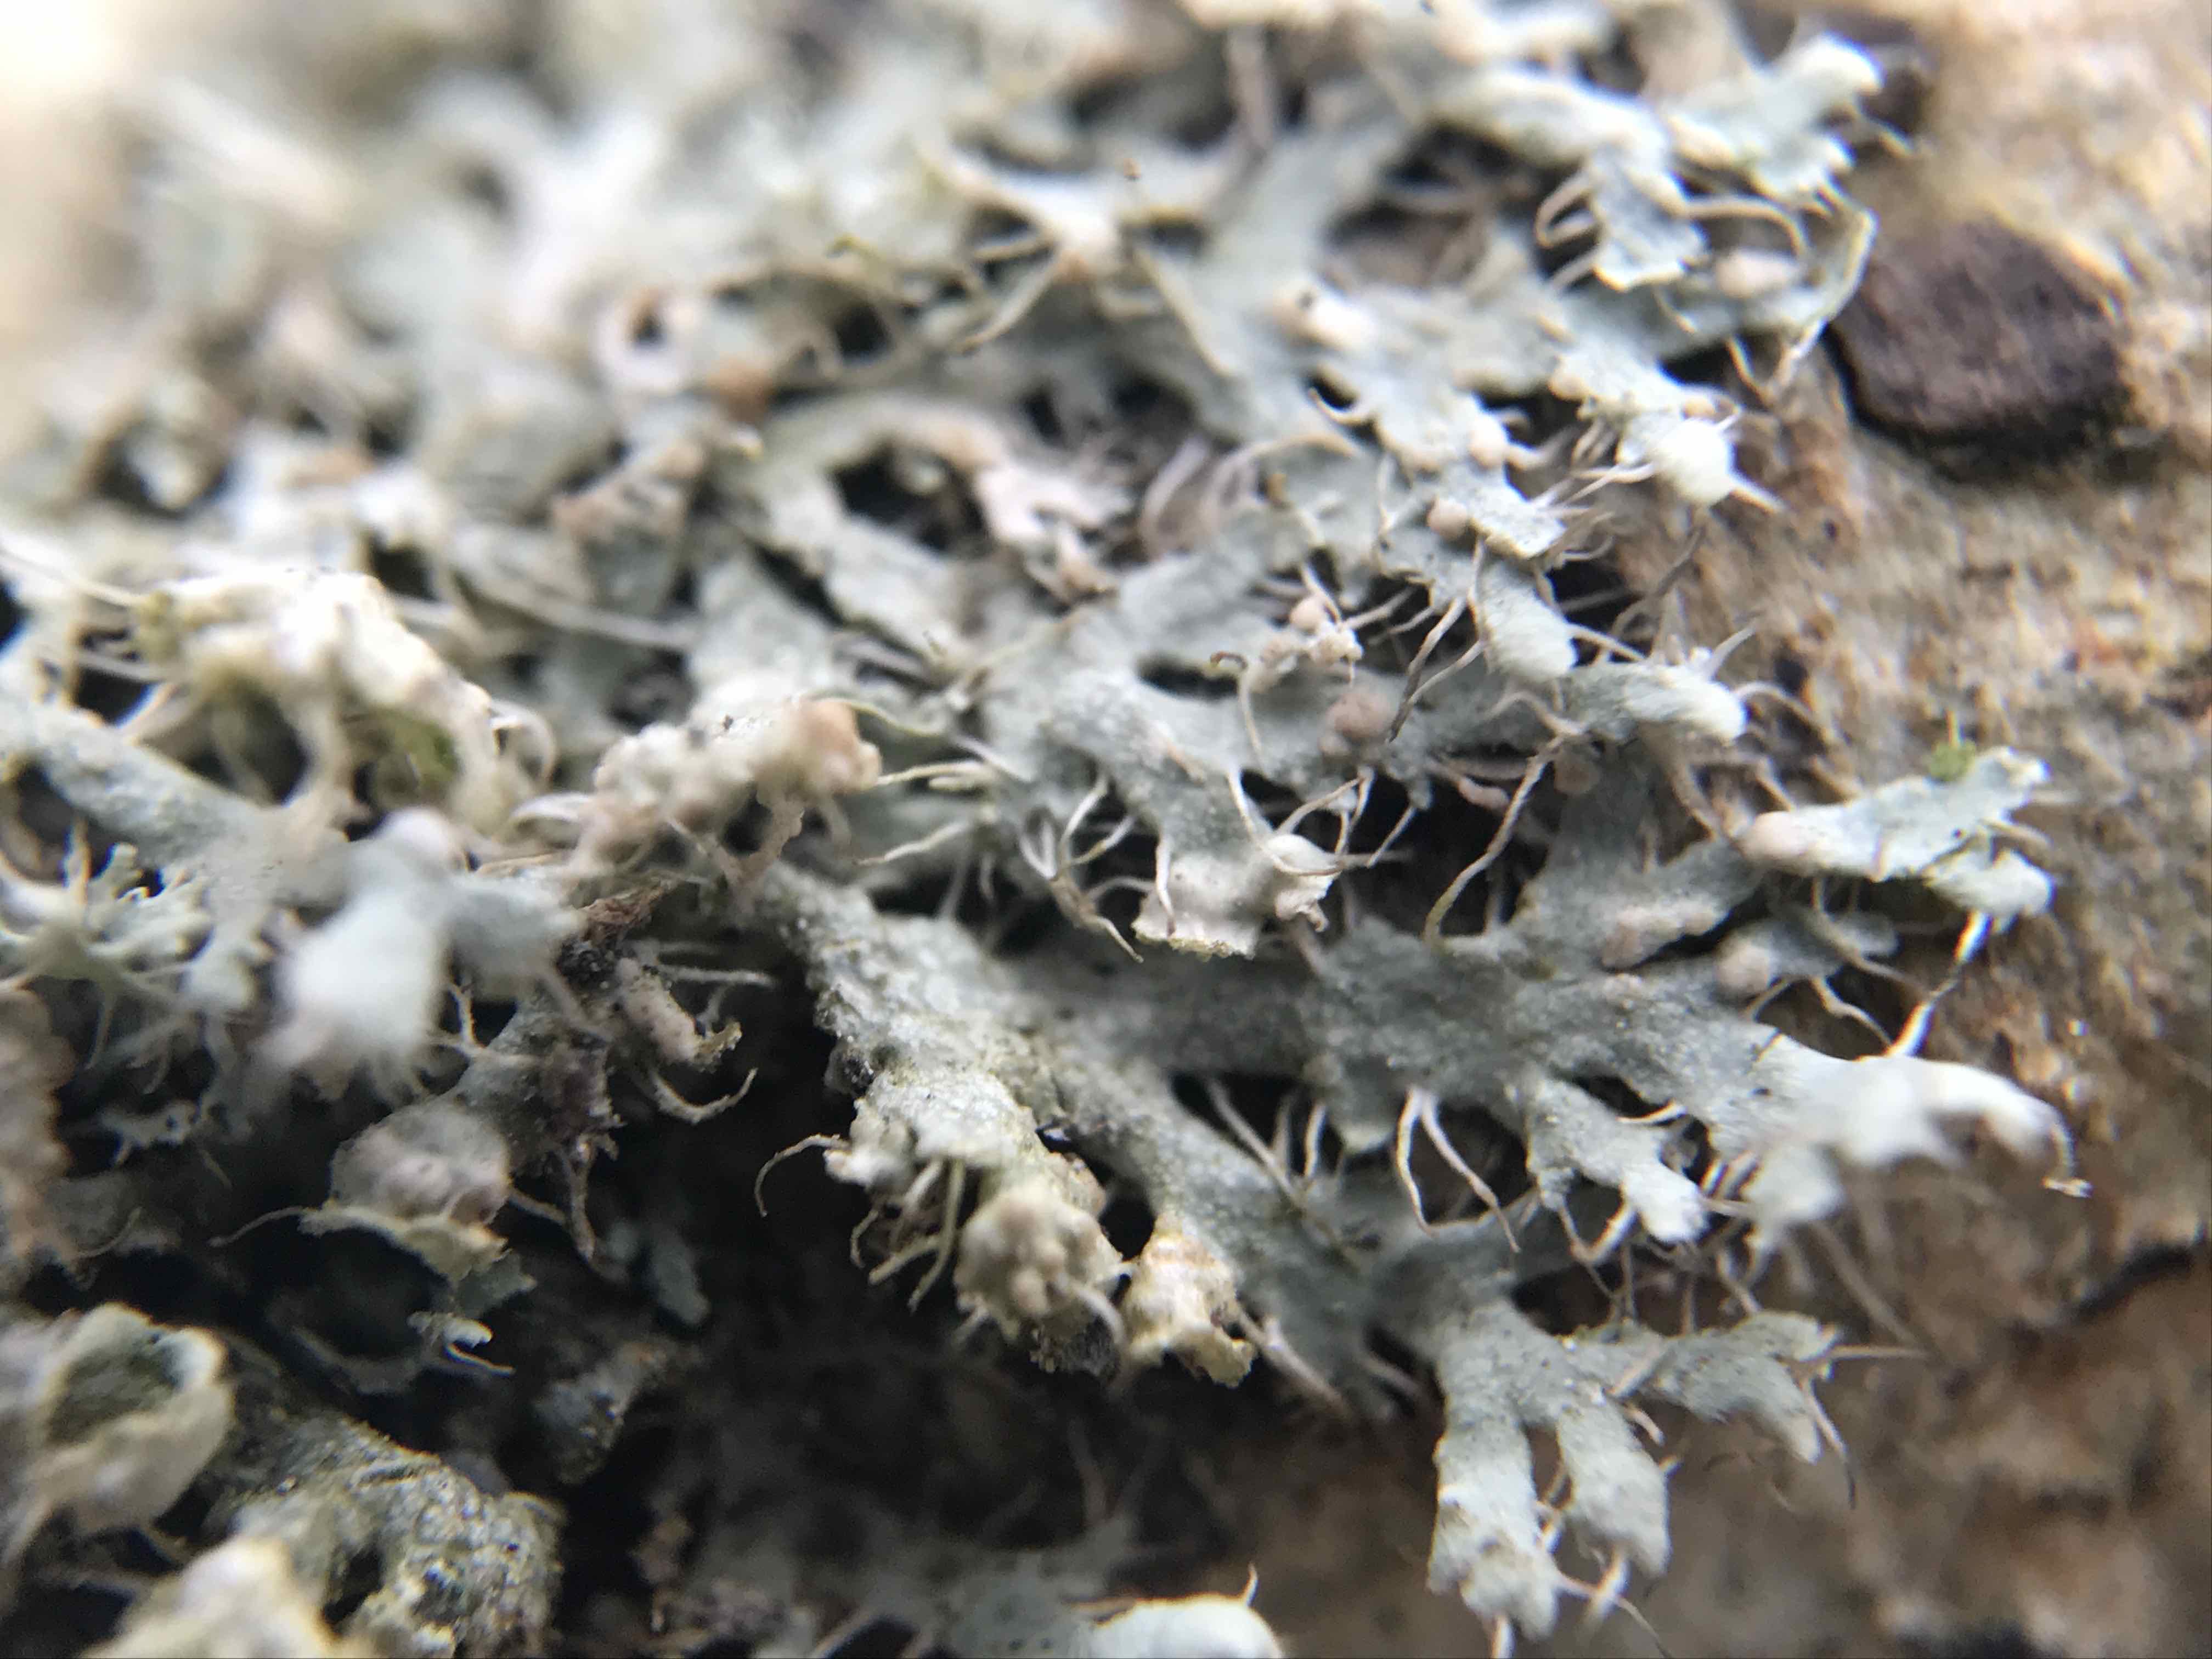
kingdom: Fungi
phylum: Basidiomycota
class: Tremellomycetes
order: Filobasidiales
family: Filobasidiaceae
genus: Zyzygomyces
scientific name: Zyzygomyces physciacearum
